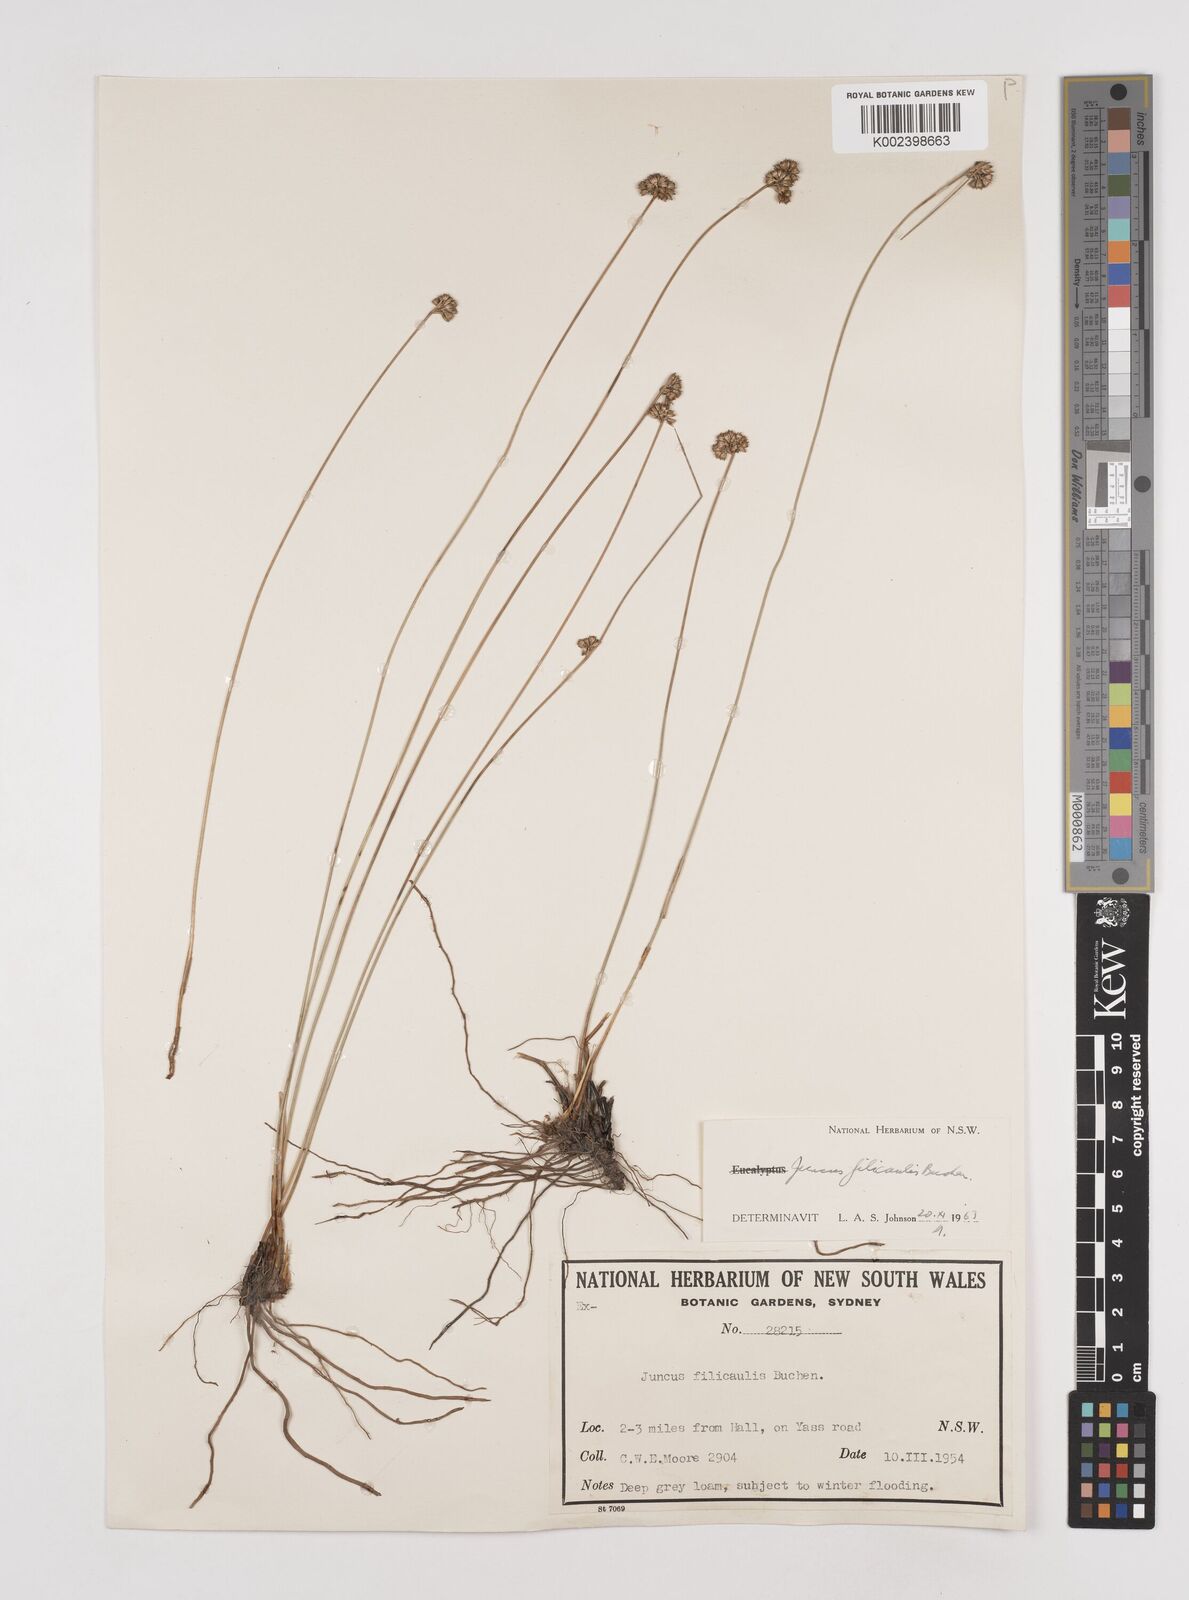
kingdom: Plantae
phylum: Tracheophyta
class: Liliopsida
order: Poales
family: Juncaceae
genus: Juncus
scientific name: Juncus filicaulis
